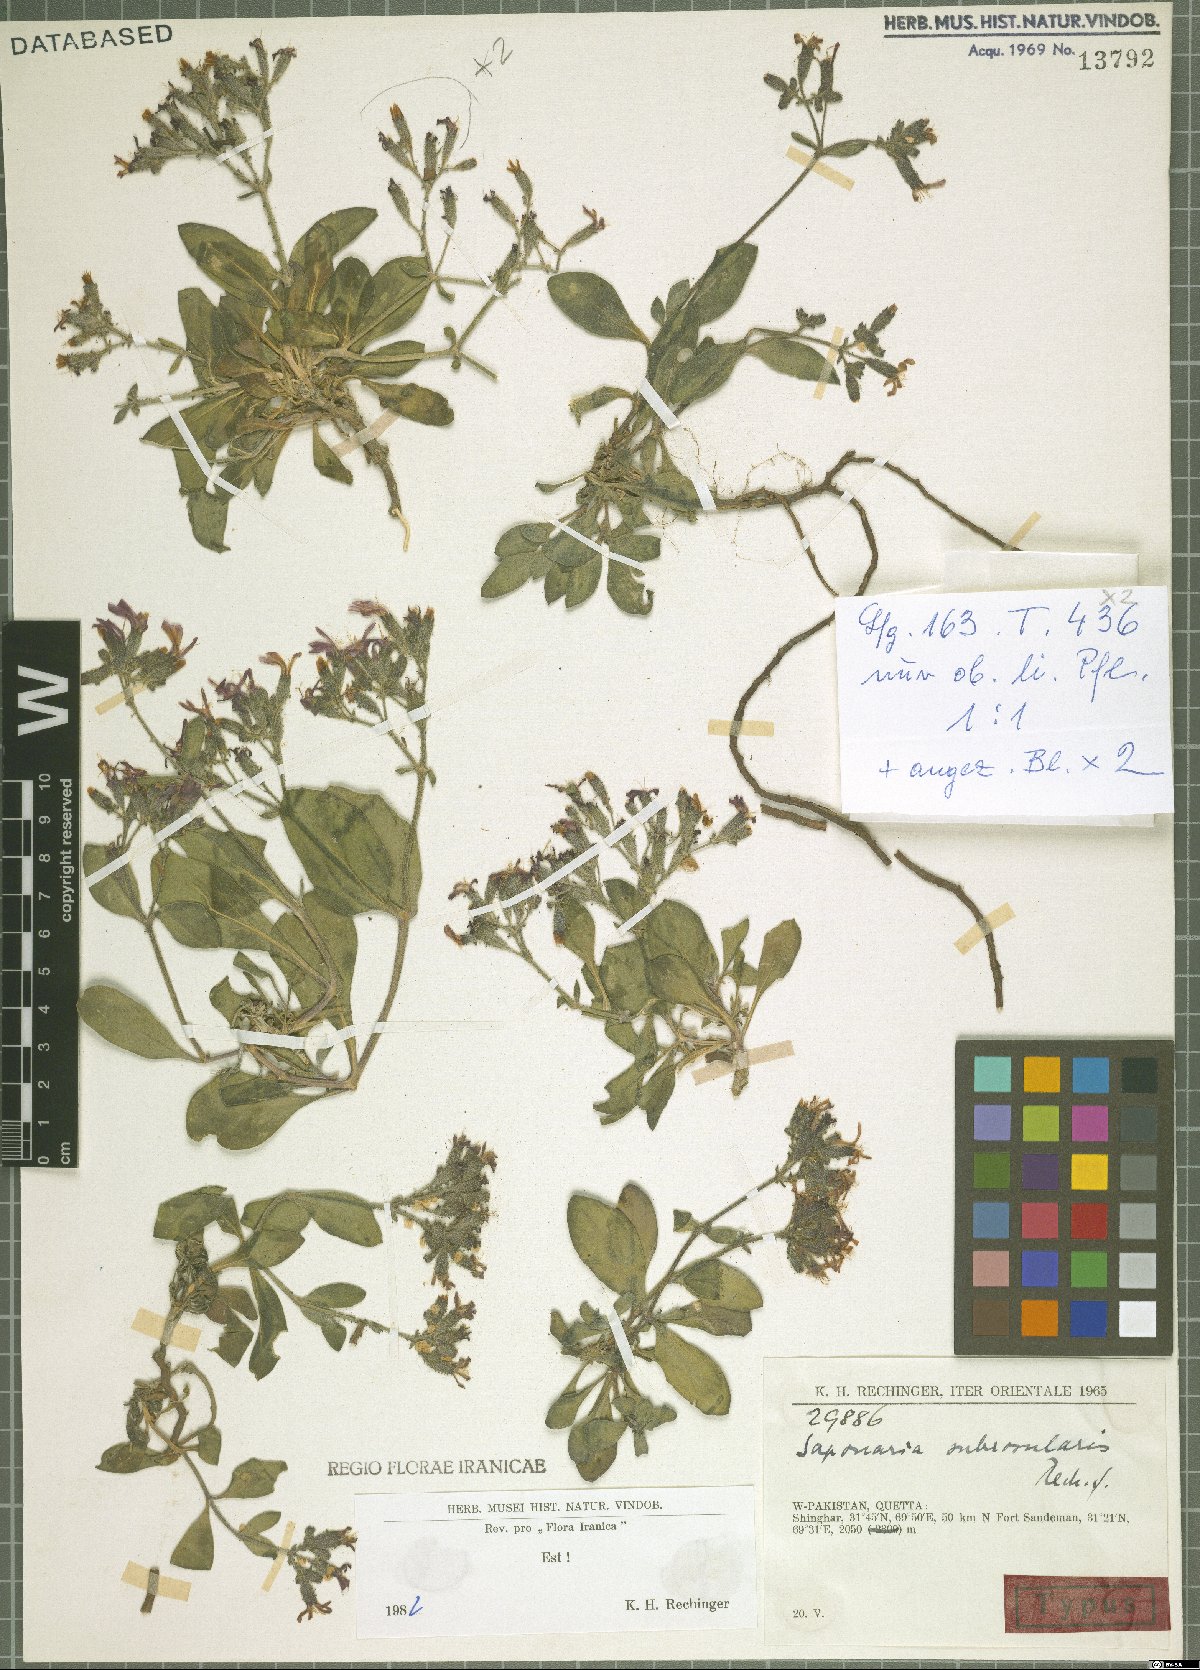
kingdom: Plantae
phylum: Tracheophyta
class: Magnoliopsida
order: Caryophyllales
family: Caryophyllaceae
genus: Saponaria
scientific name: Saponaria subrosularis
